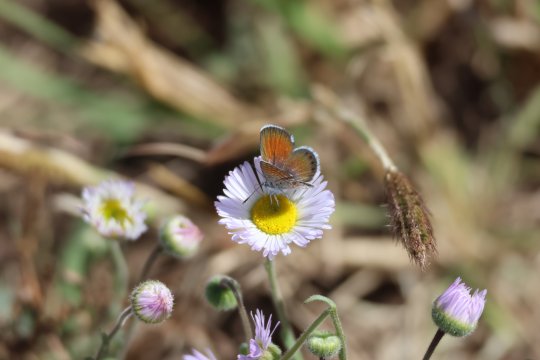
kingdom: Animalia
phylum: Arthropoda
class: Insecta
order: Lepidoptera
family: Lycaenidae
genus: Brephidium
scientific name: Brephidium exilis
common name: Western Pygmy-Blue
